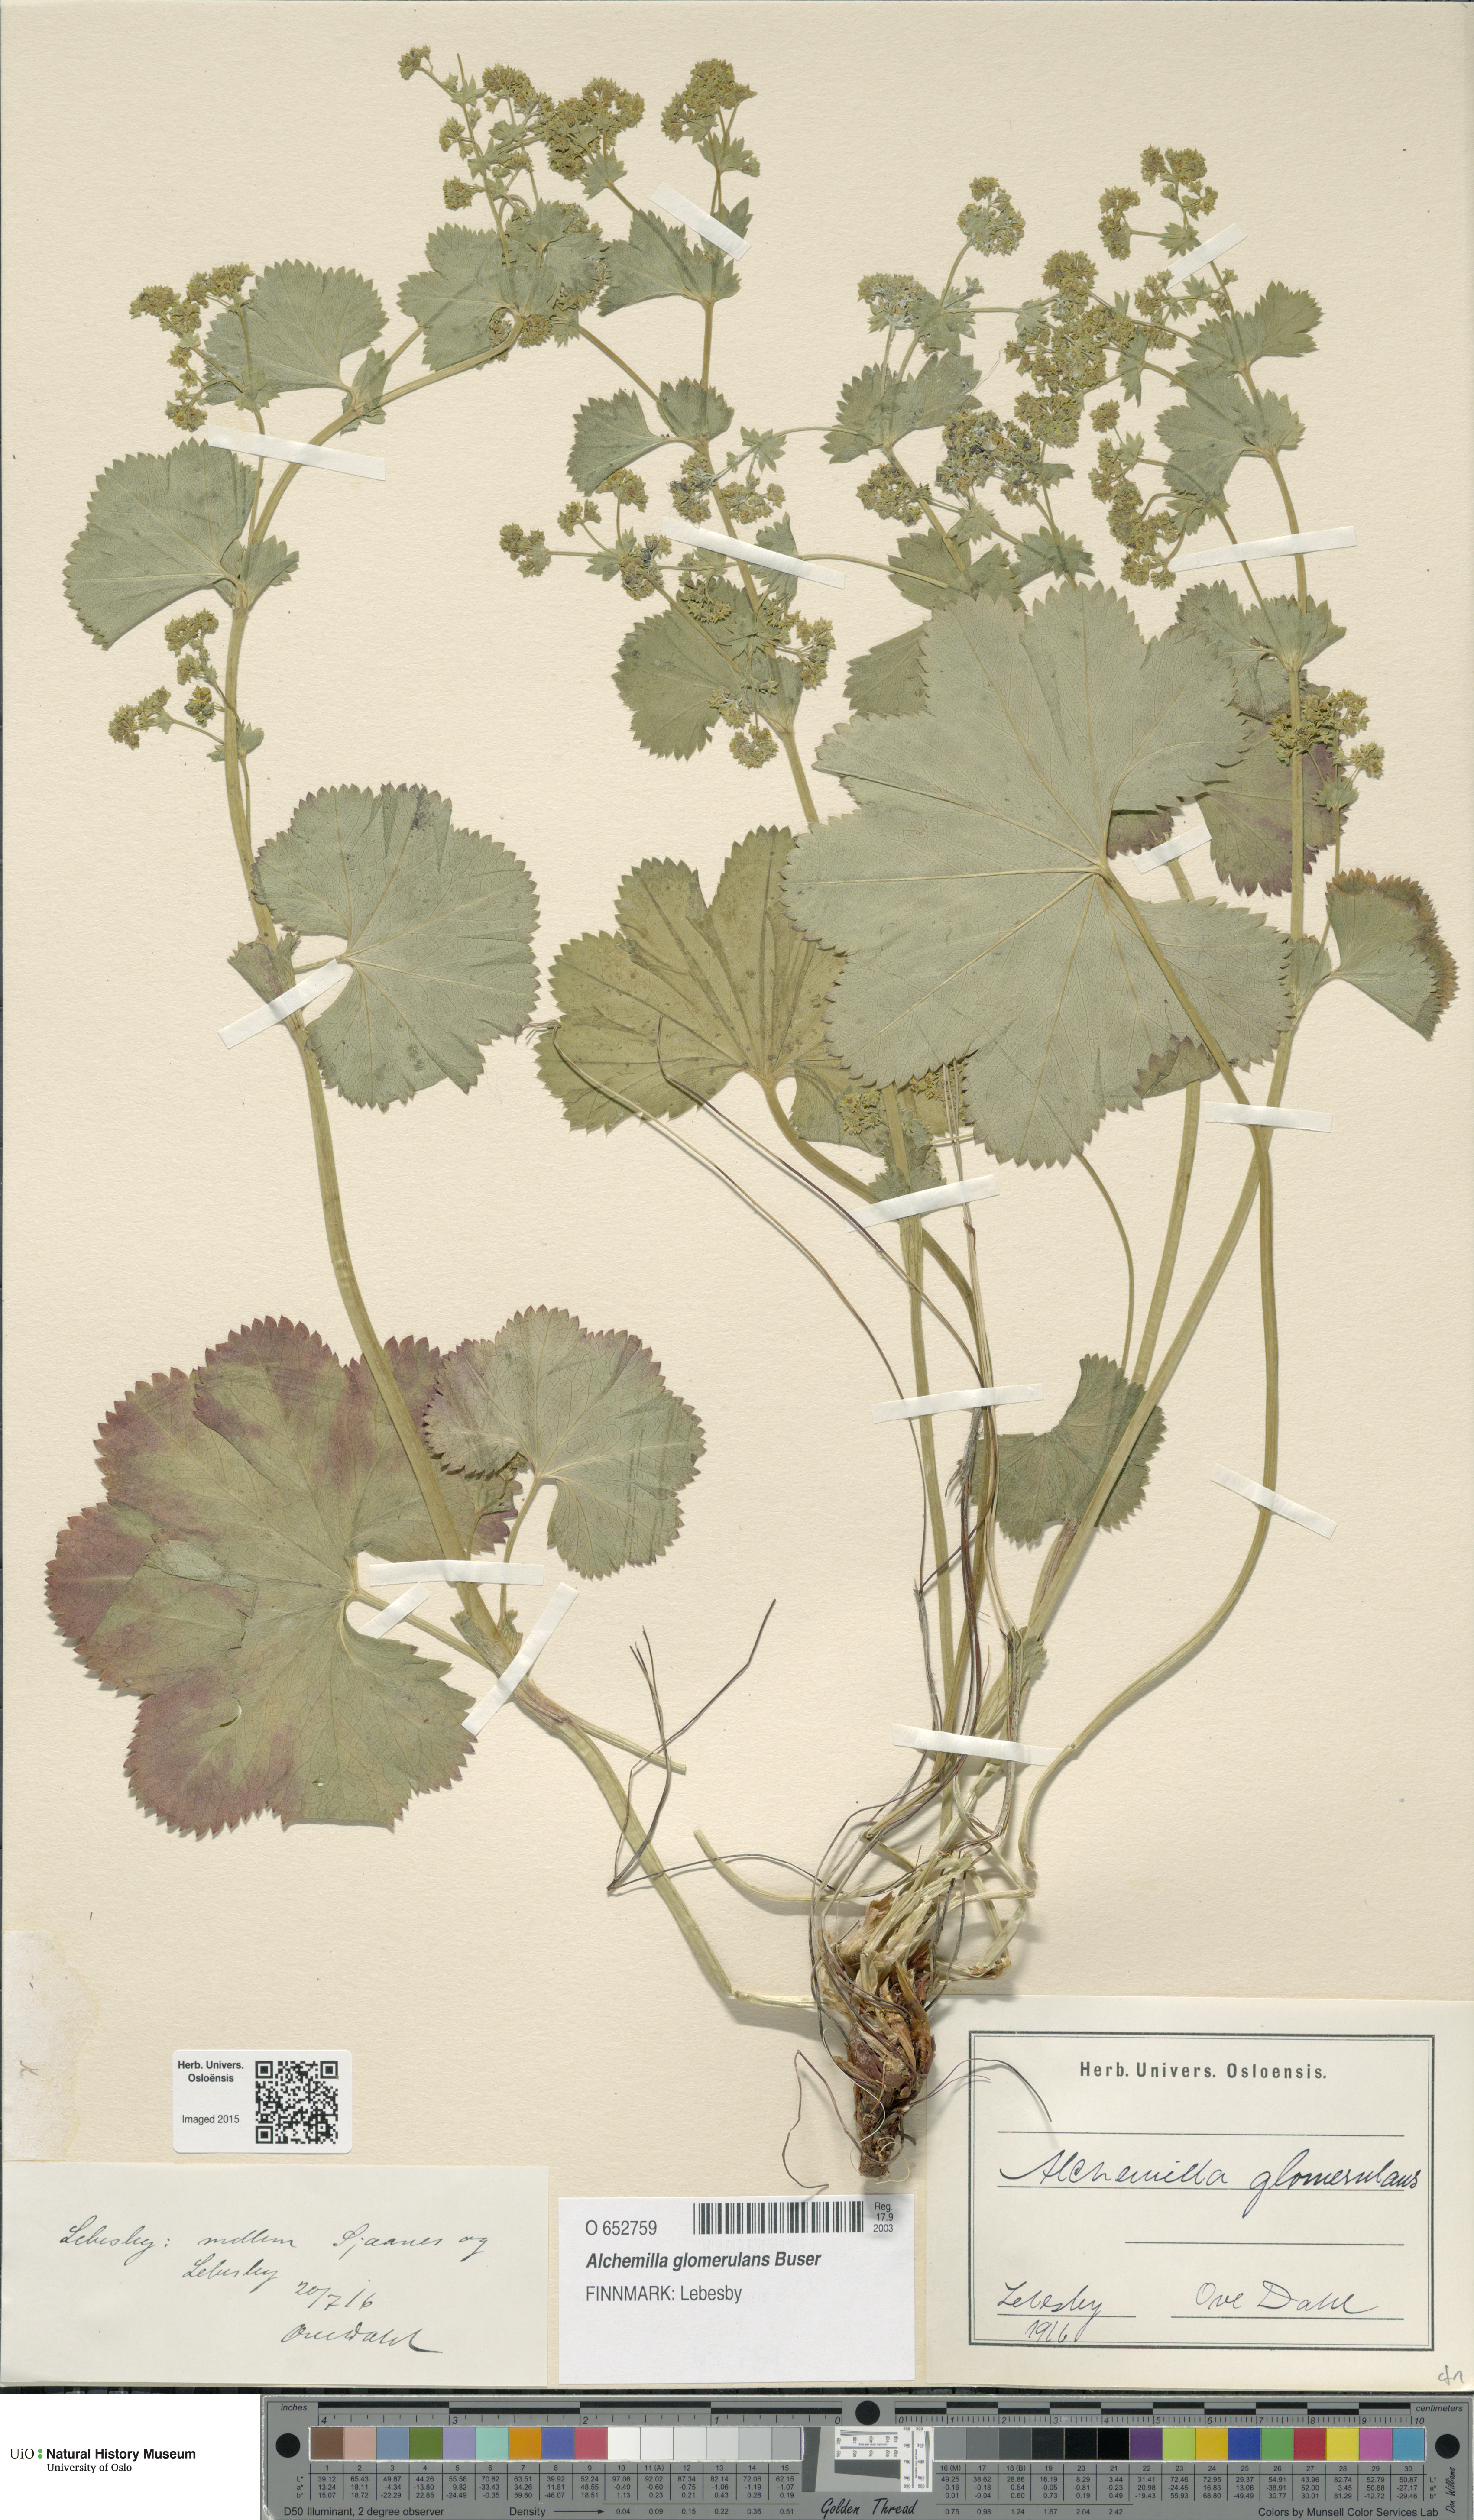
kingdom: Plantae
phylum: Tracheophyta
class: Magnoliopsida
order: Rosales
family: Rosaceae
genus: Alchemilla
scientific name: Alchemilla glomerulans
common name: Clustered lady's mantle
